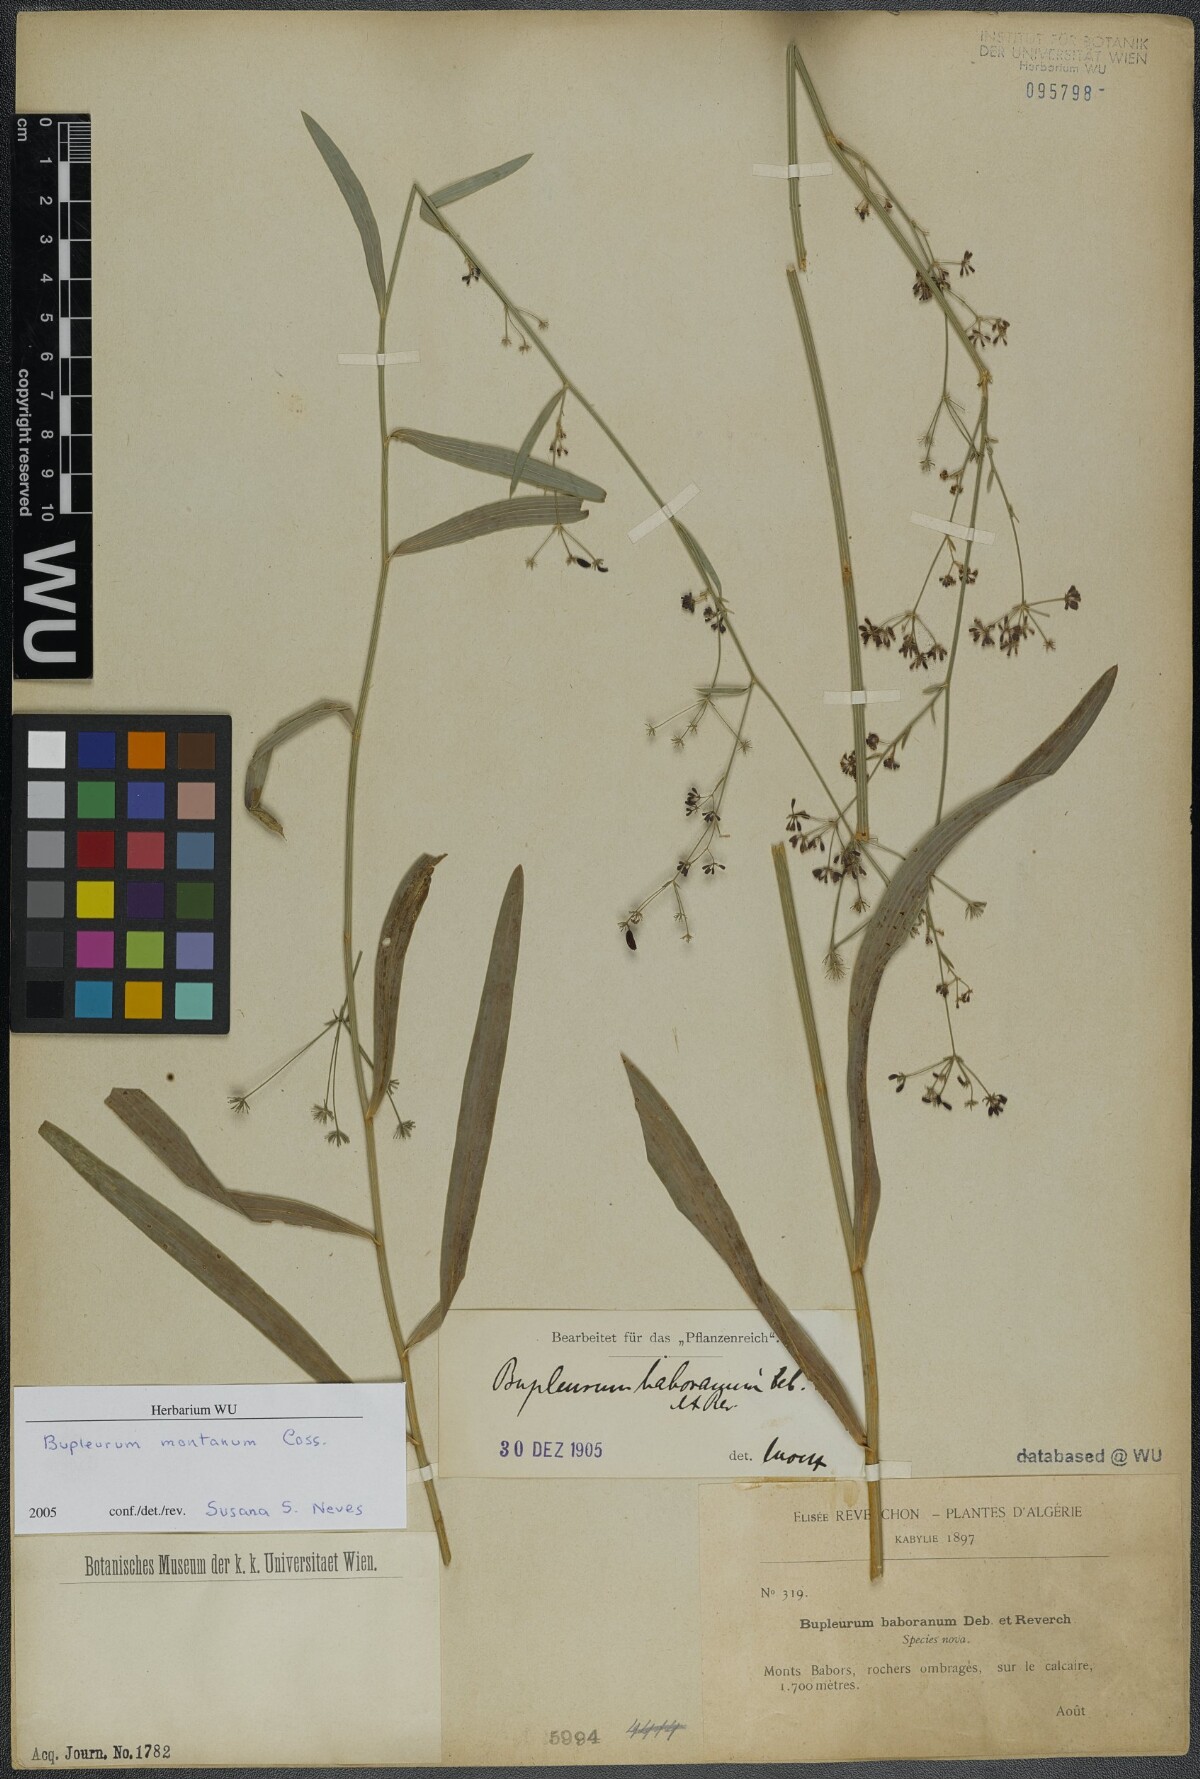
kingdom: Plantae
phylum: Tracheophyta
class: Magnoliopsida
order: Apiales
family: Apiaceae
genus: Bupleurum
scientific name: Bupleurum montanum
